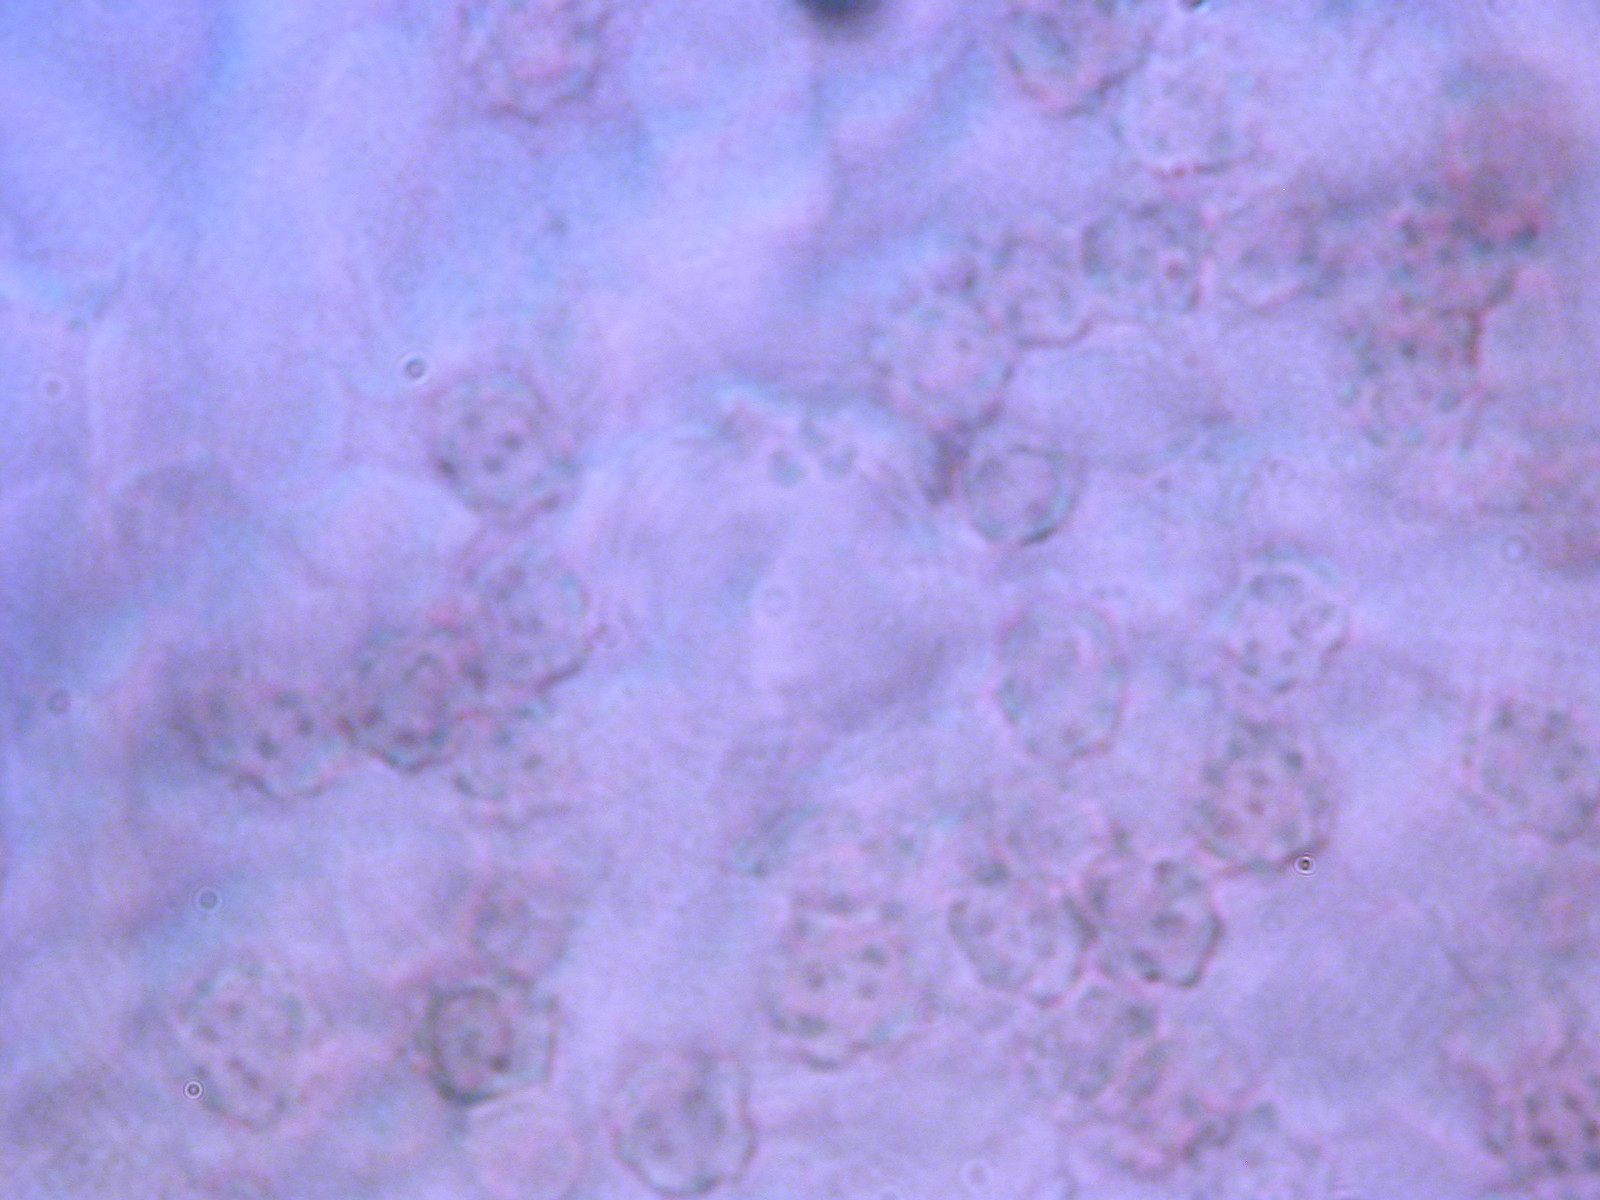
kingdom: Fungi
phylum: Basidiomycota
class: Agaricomycetes
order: Thelephorales
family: Bankeraceae
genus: Sarcodon
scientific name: Sarcodon
